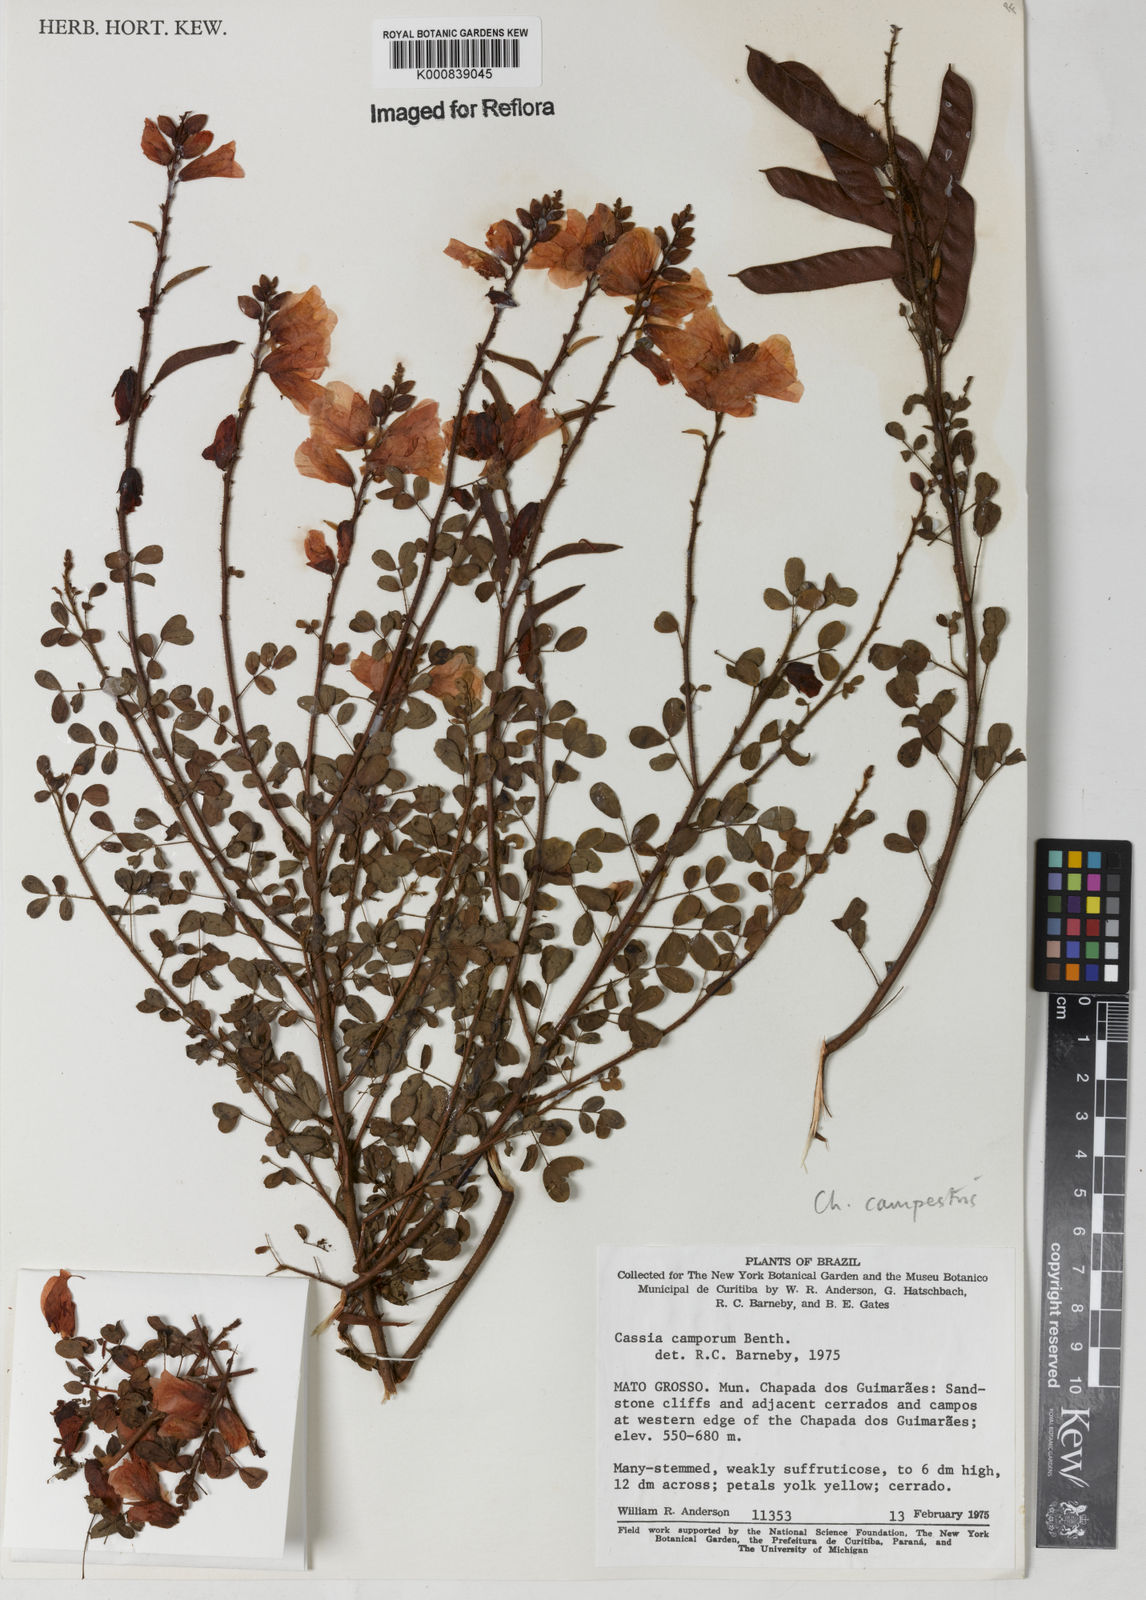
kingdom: Plantae
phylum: Tracheophyta
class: Magnoliopsida
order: Fabales
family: Fabaceae
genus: Chamaecrista
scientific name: Chamaecrista campestris
